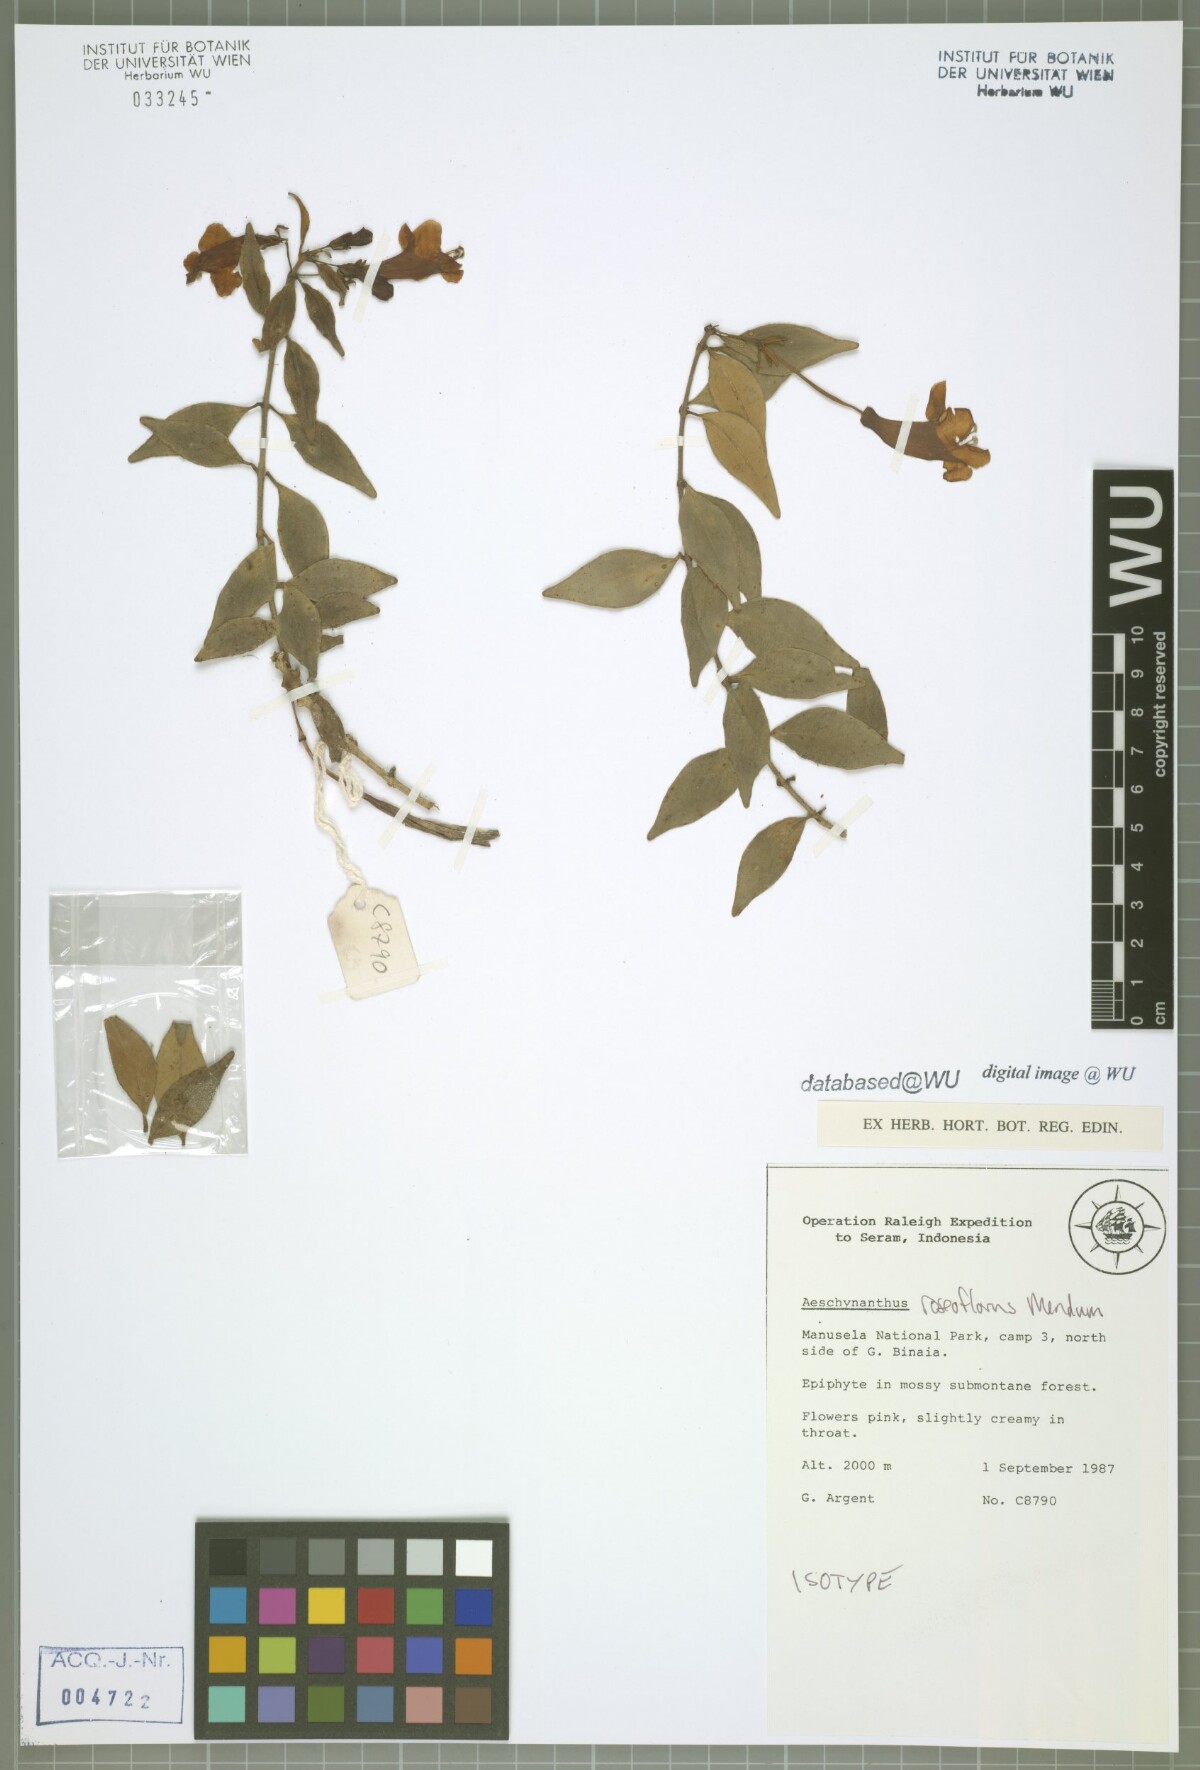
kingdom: Plantae
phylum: Tracheophyta
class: Magnoliopsida
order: Lamiales
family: Gesneriaceae
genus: Aeschynanthus
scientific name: Aeschynanthus roseoflorus
